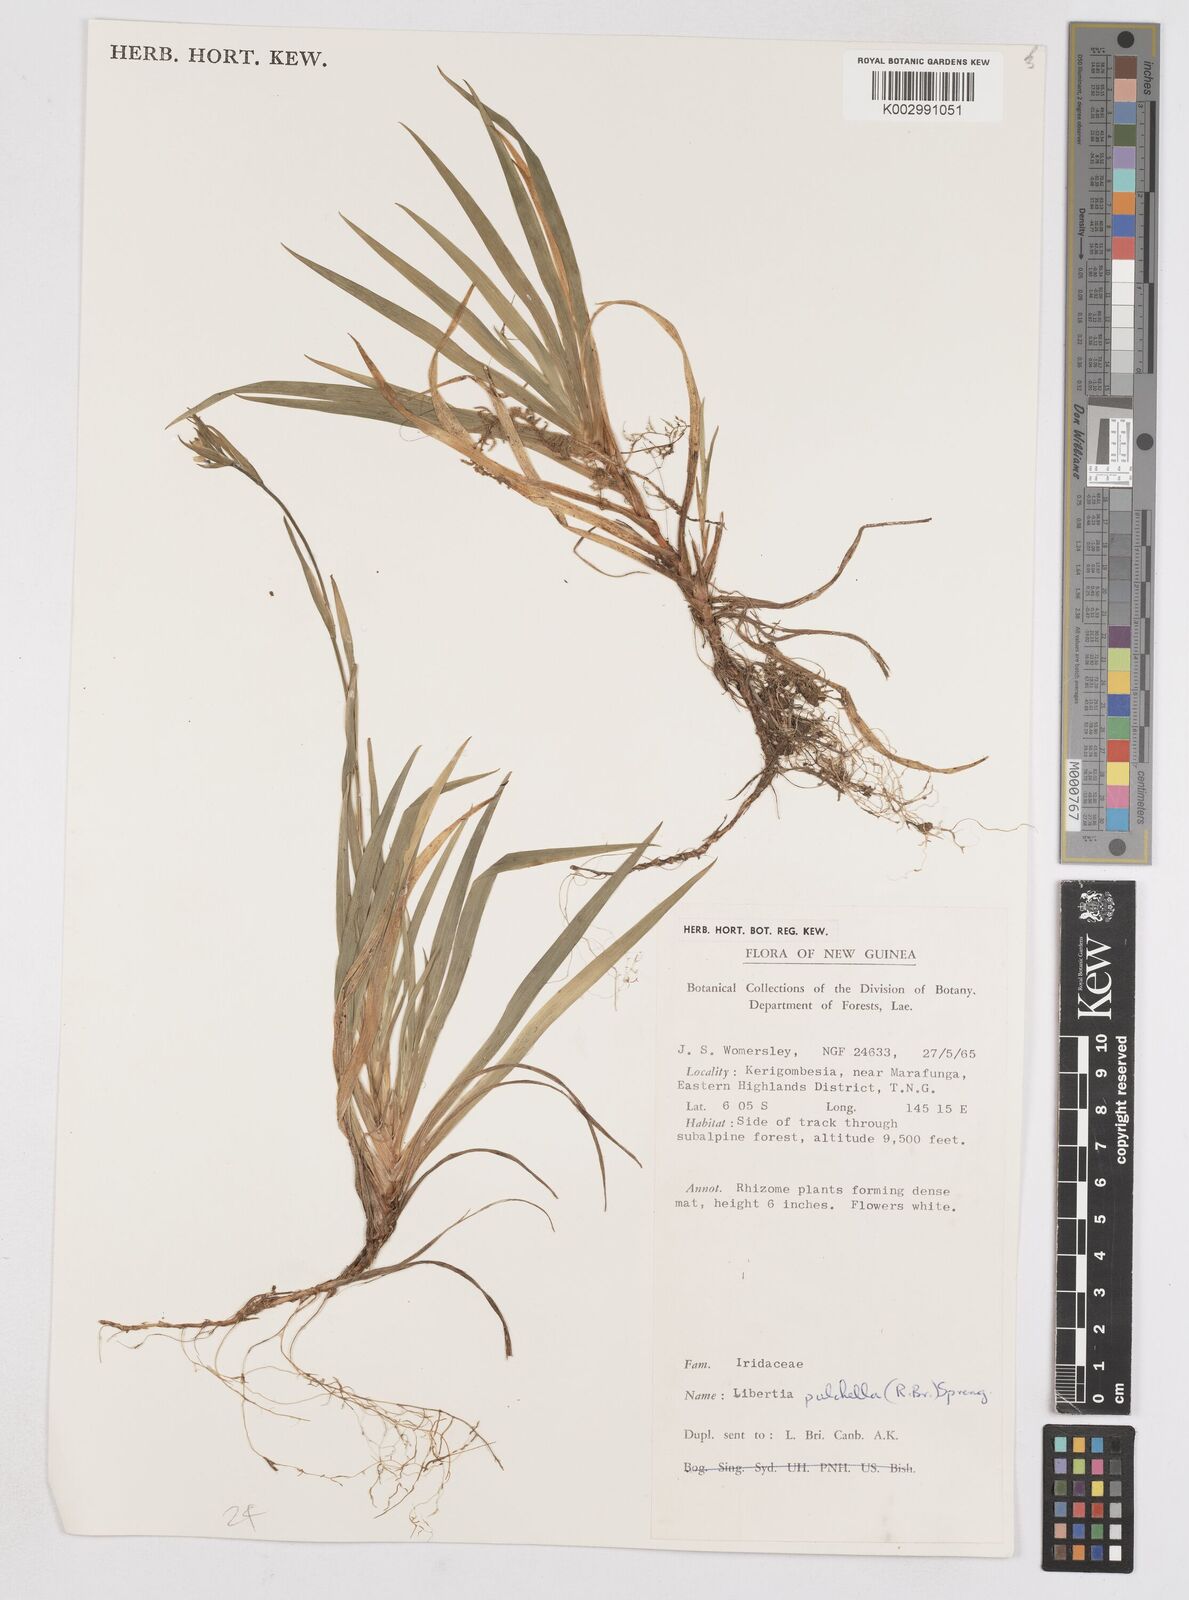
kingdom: Plantae
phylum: Tracheophyta
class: Liliopsida
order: Asparagales
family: Iridaceae
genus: Libertia
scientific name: Libertia pulchella
